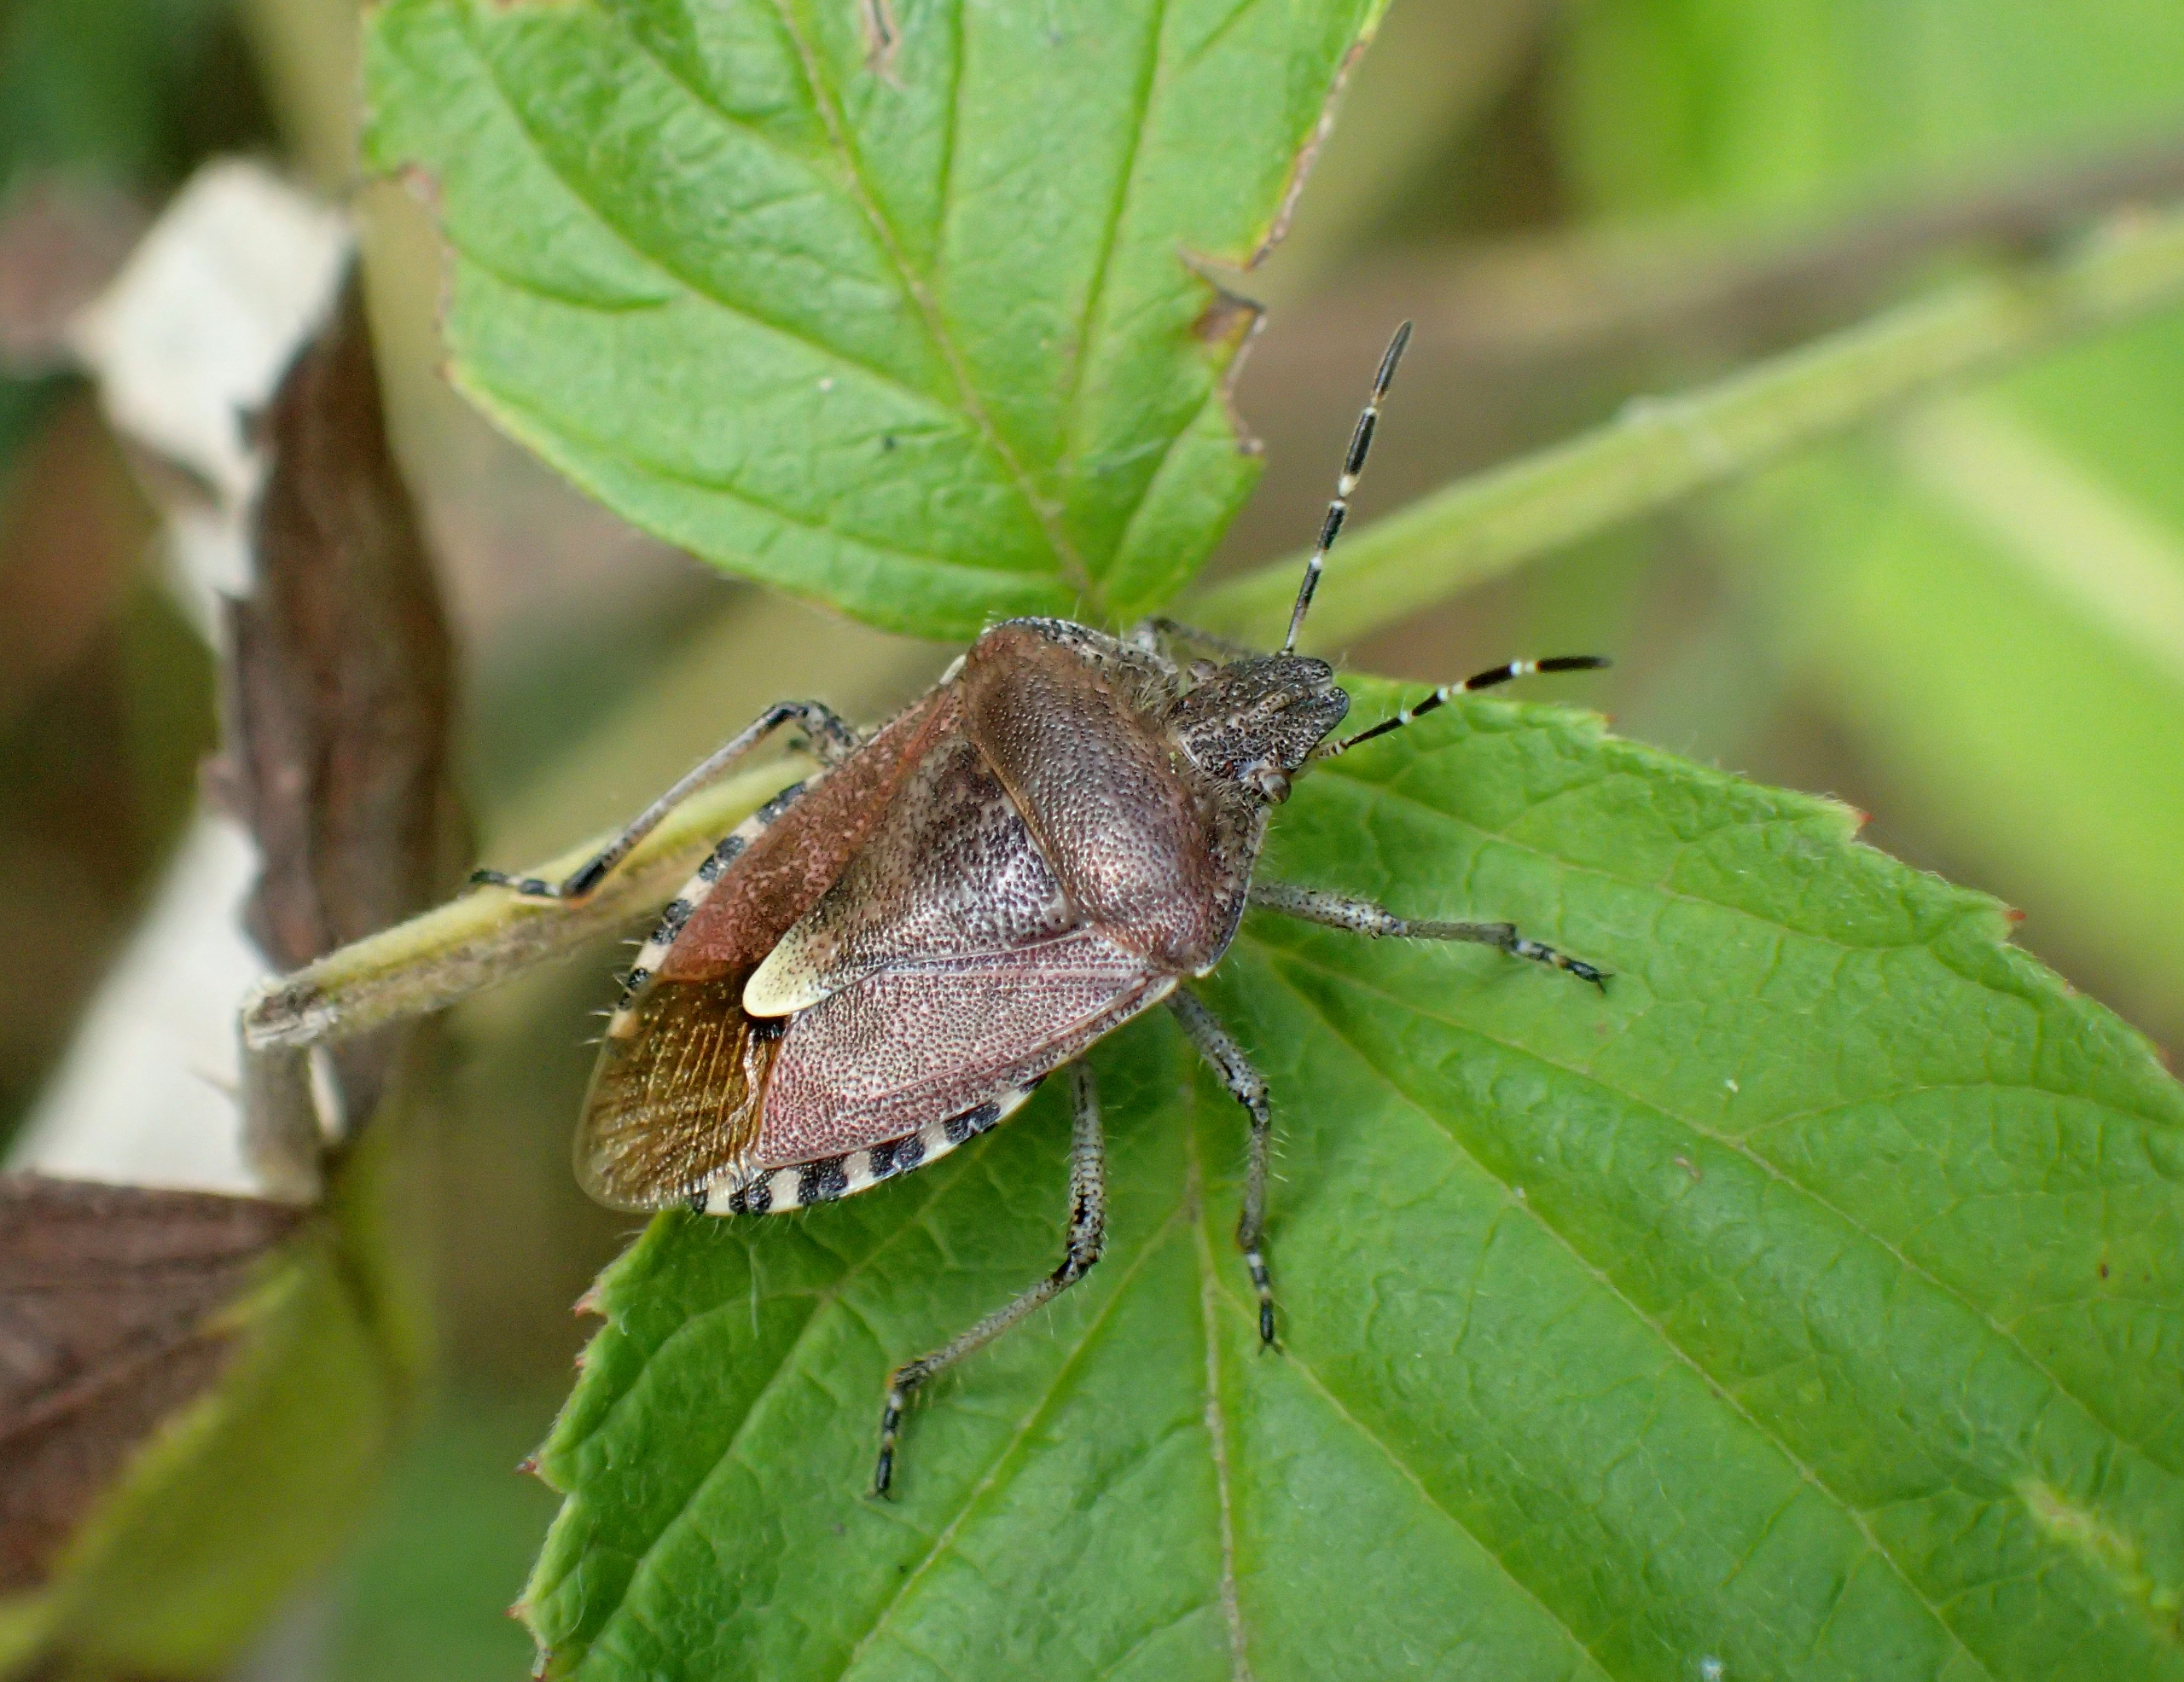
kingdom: Animalia
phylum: Arthropoda
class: Insecta
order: Hemiptera
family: Pentatomidae
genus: Dolycoris
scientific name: Dolycoris baccarum
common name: Almindelig bærtæge
